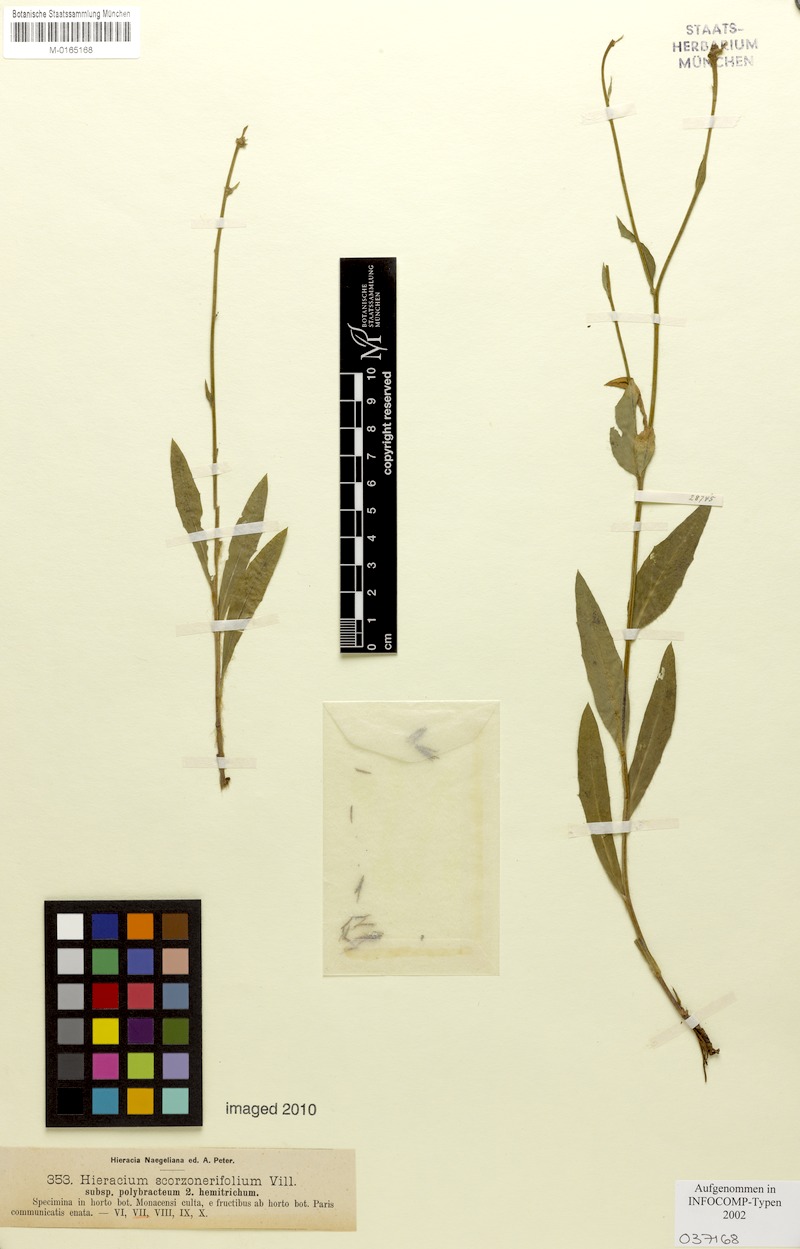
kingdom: Plantae
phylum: Tracheophyta
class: Magnoliopsida
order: Asterales
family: Asteraceae
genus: Hieracium
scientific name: Hieracium scorzonerifolium
